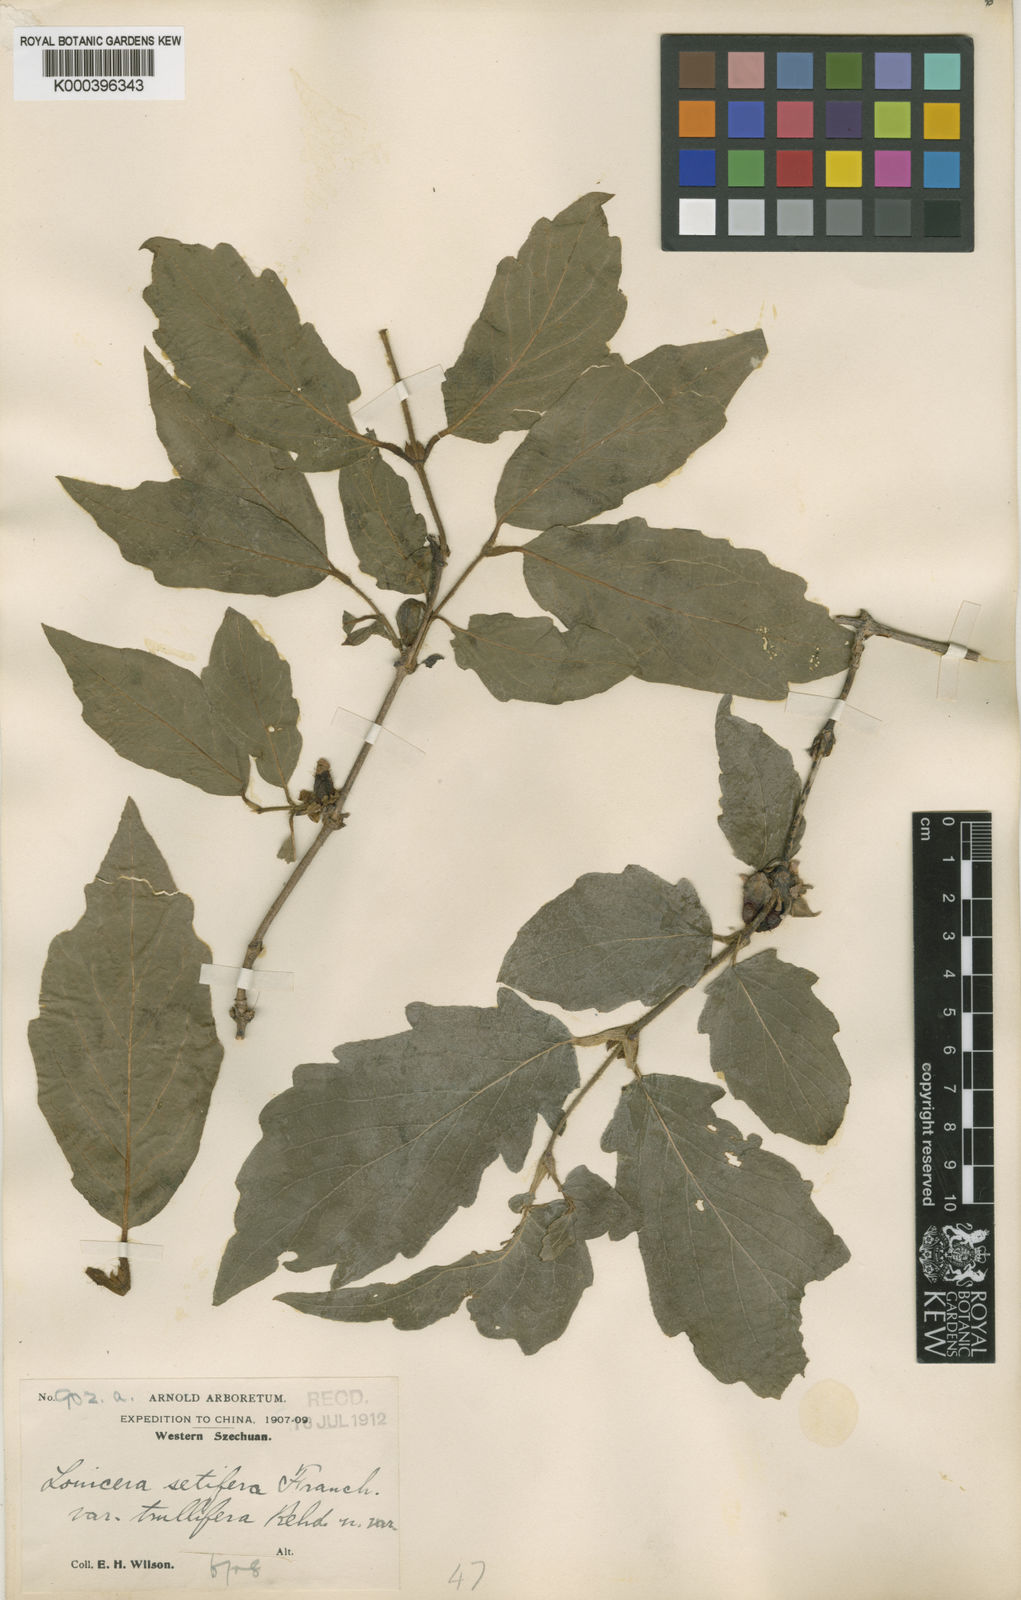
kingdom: Plantae
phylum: Tracheophyta
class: Magnoliopsida
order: Dipsacales
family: Caprifoliaceae
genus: Lonicera
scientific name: Lonicera setifera
